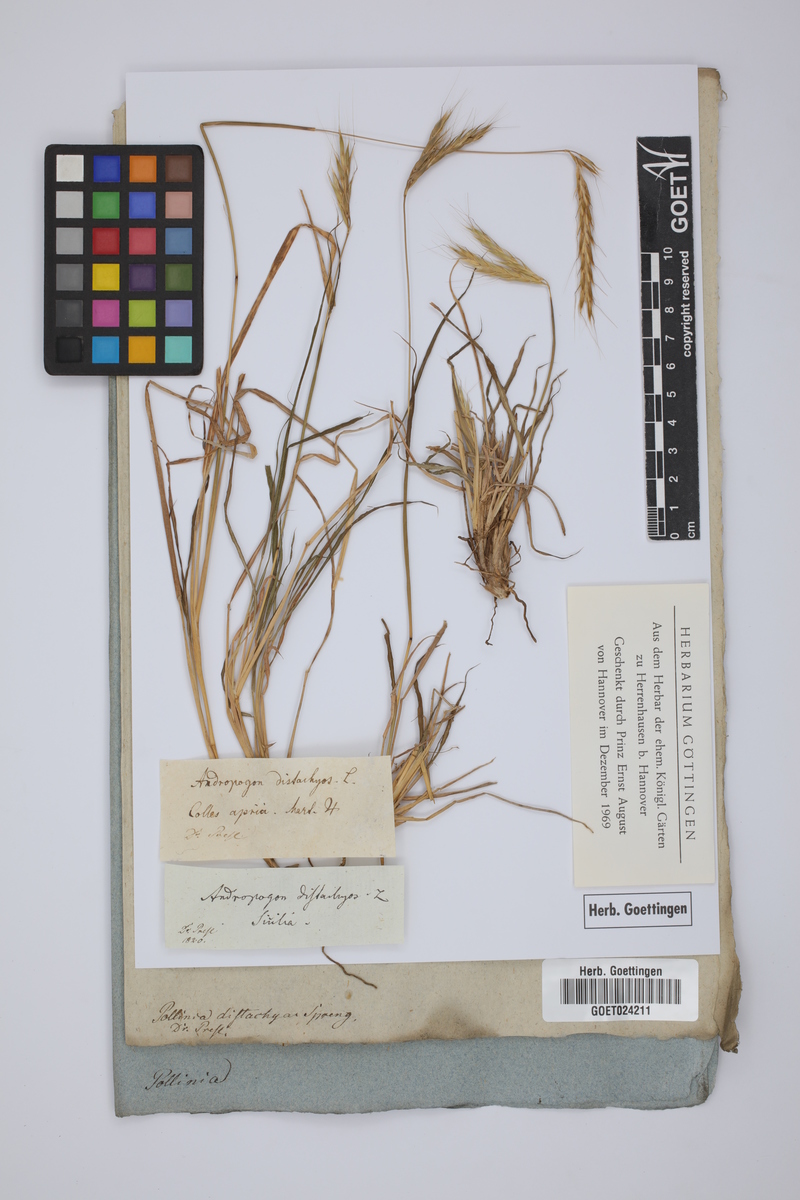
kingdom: Plantae
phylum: Tracheophyta
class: Liliopsida
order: Poales
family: Poaceae
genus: Andropogon
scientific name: Andropogon distachyos
